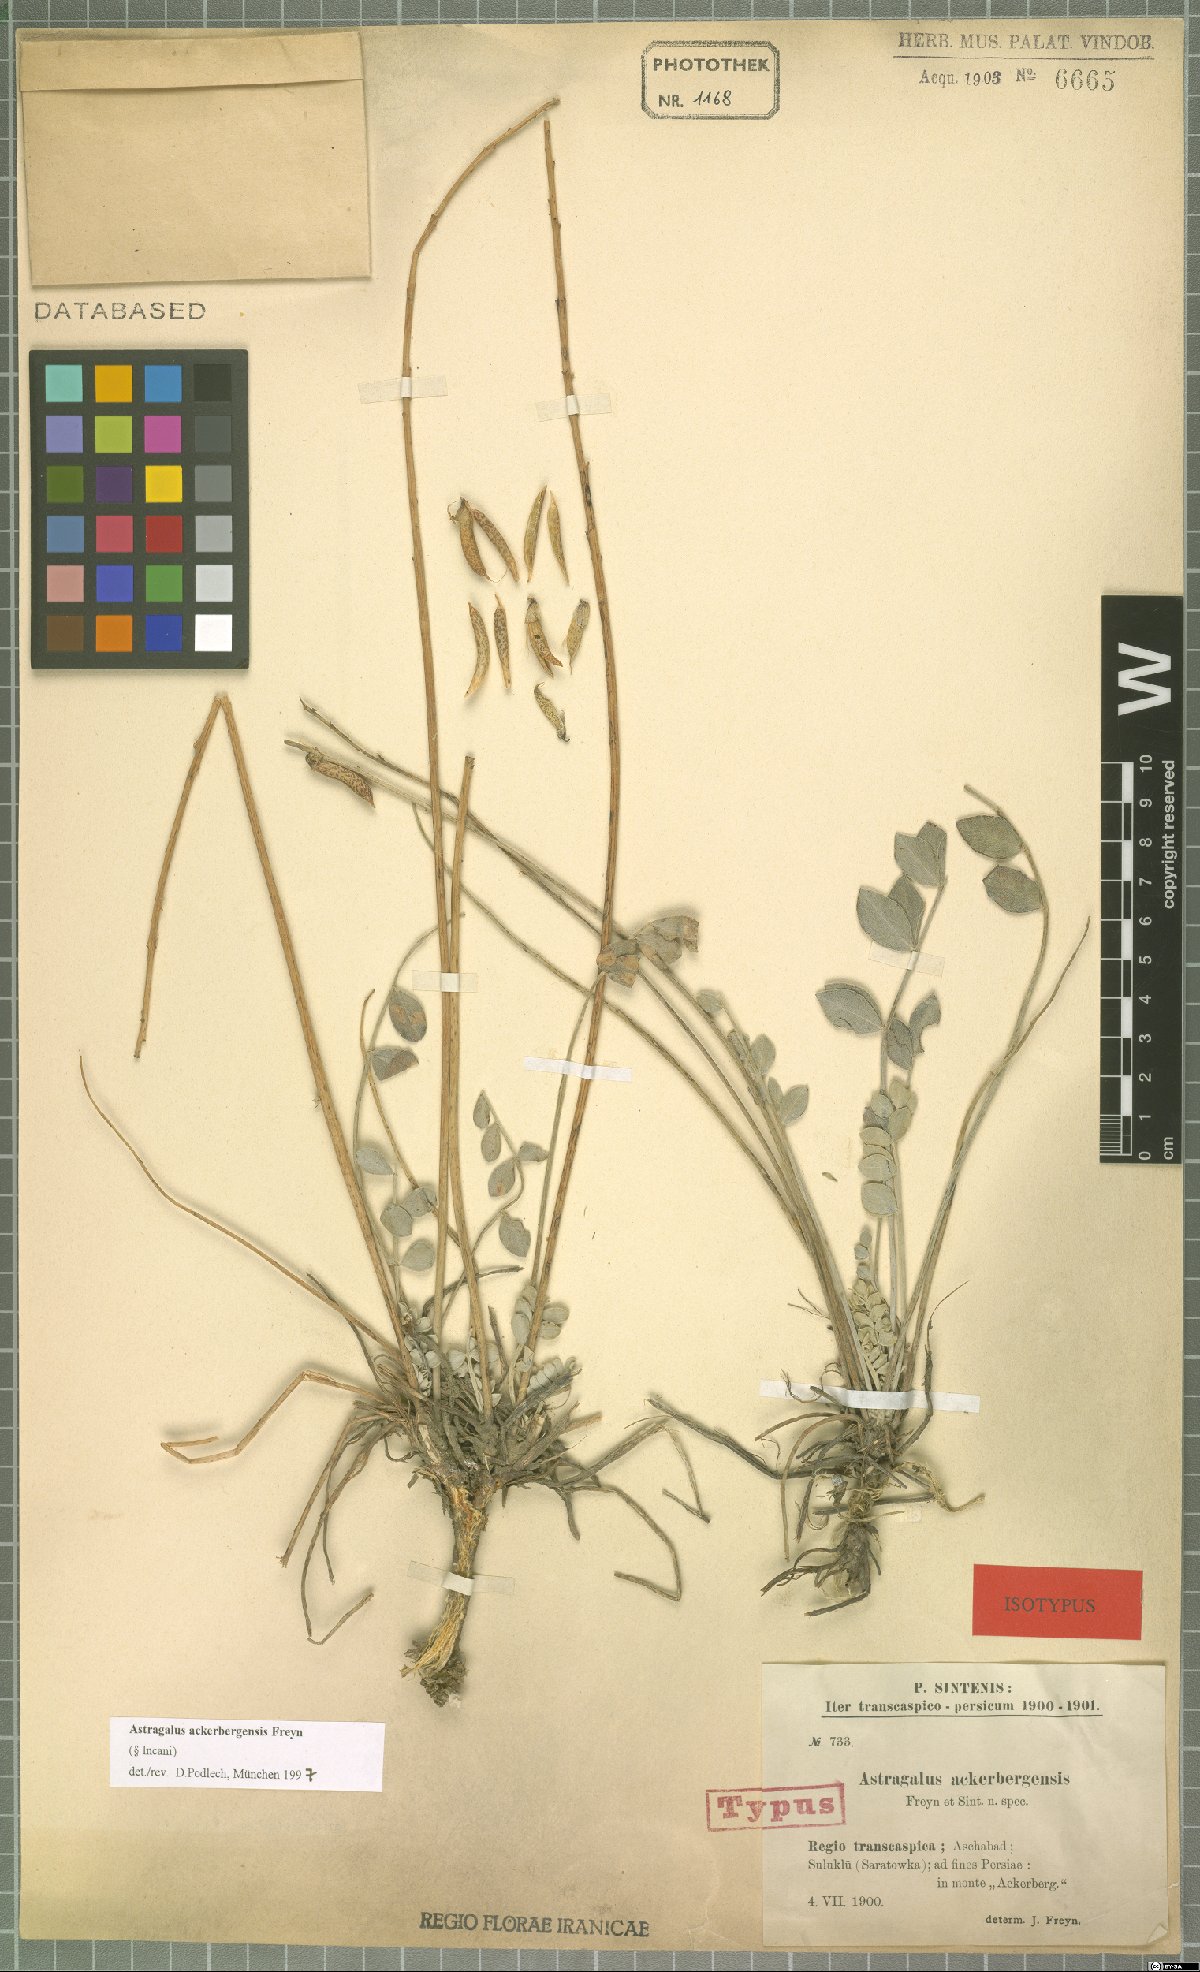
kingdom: Plantae
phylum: Tracheophyta
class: Magnoliopsida
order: Fabales
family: Fabaceae
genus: Astragalus
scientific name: Astragalus ackerbergensis
